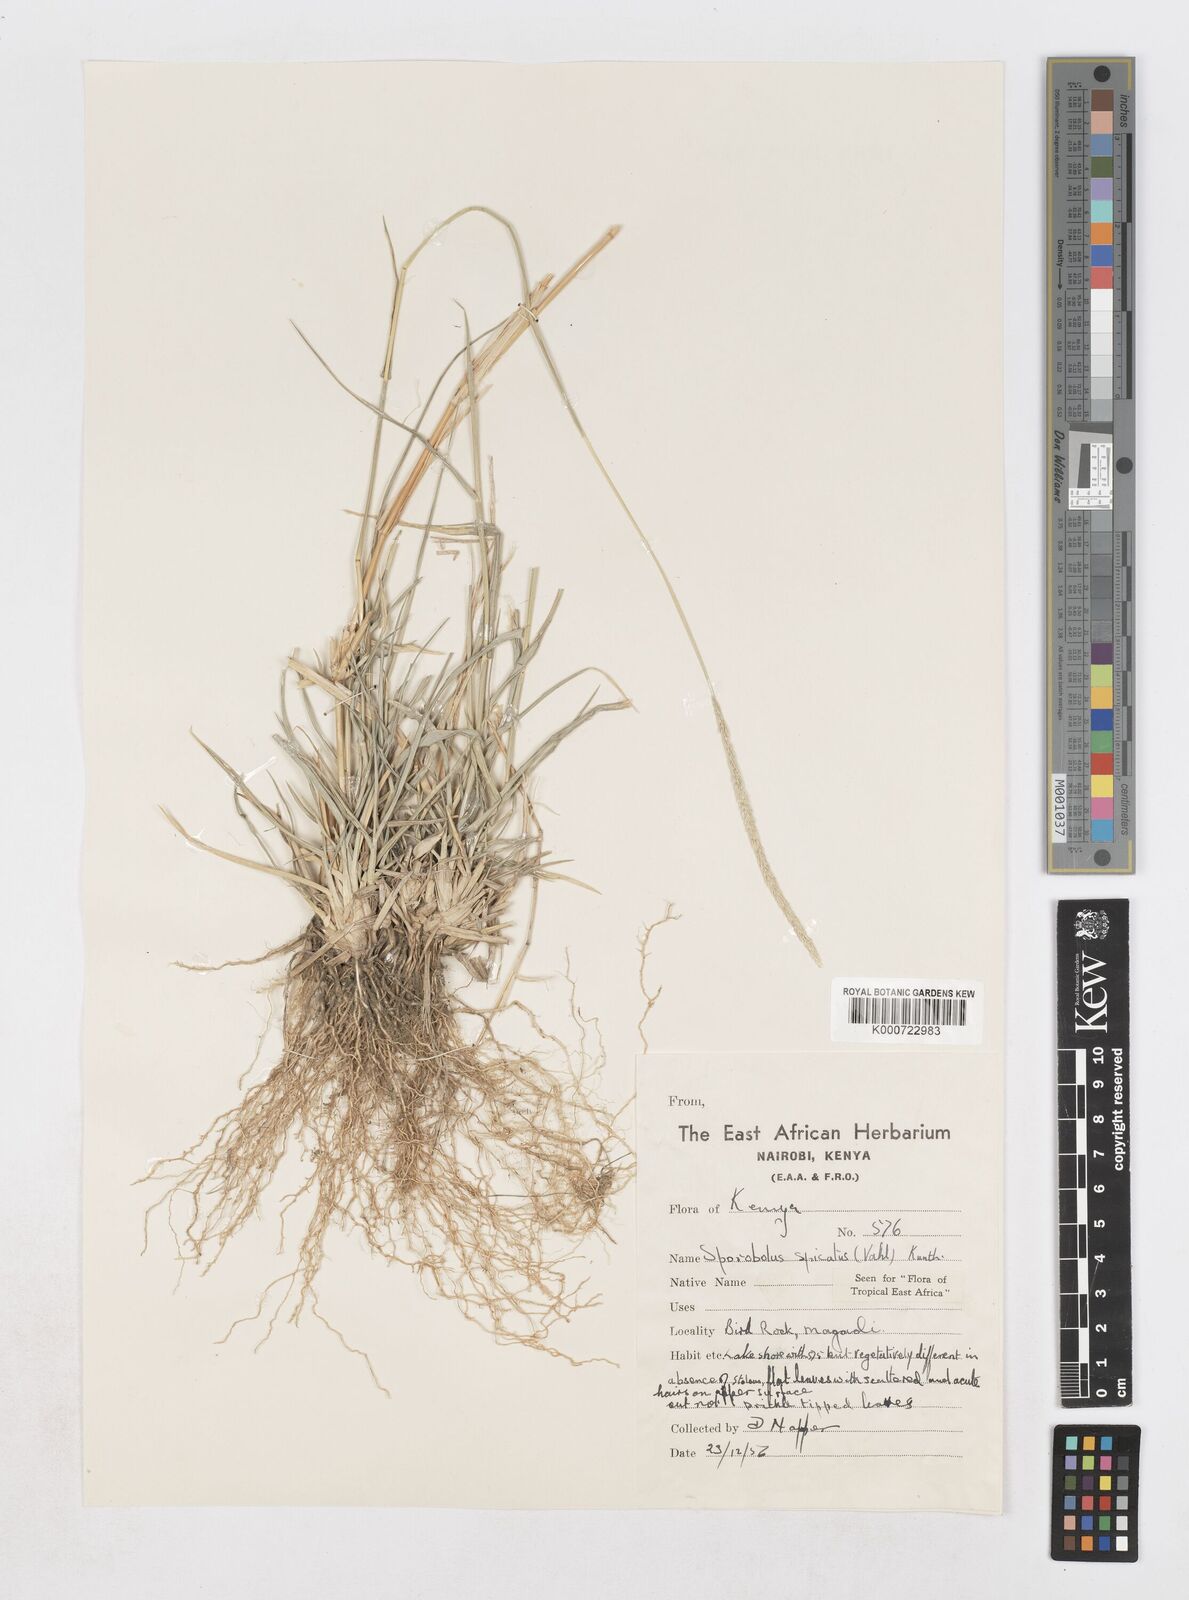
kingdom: Plantae
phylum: Tracheophyta
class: Liliopsida
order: Poales
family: Poaceae
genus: Sporobolus
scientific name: Sporobolus spicatus
